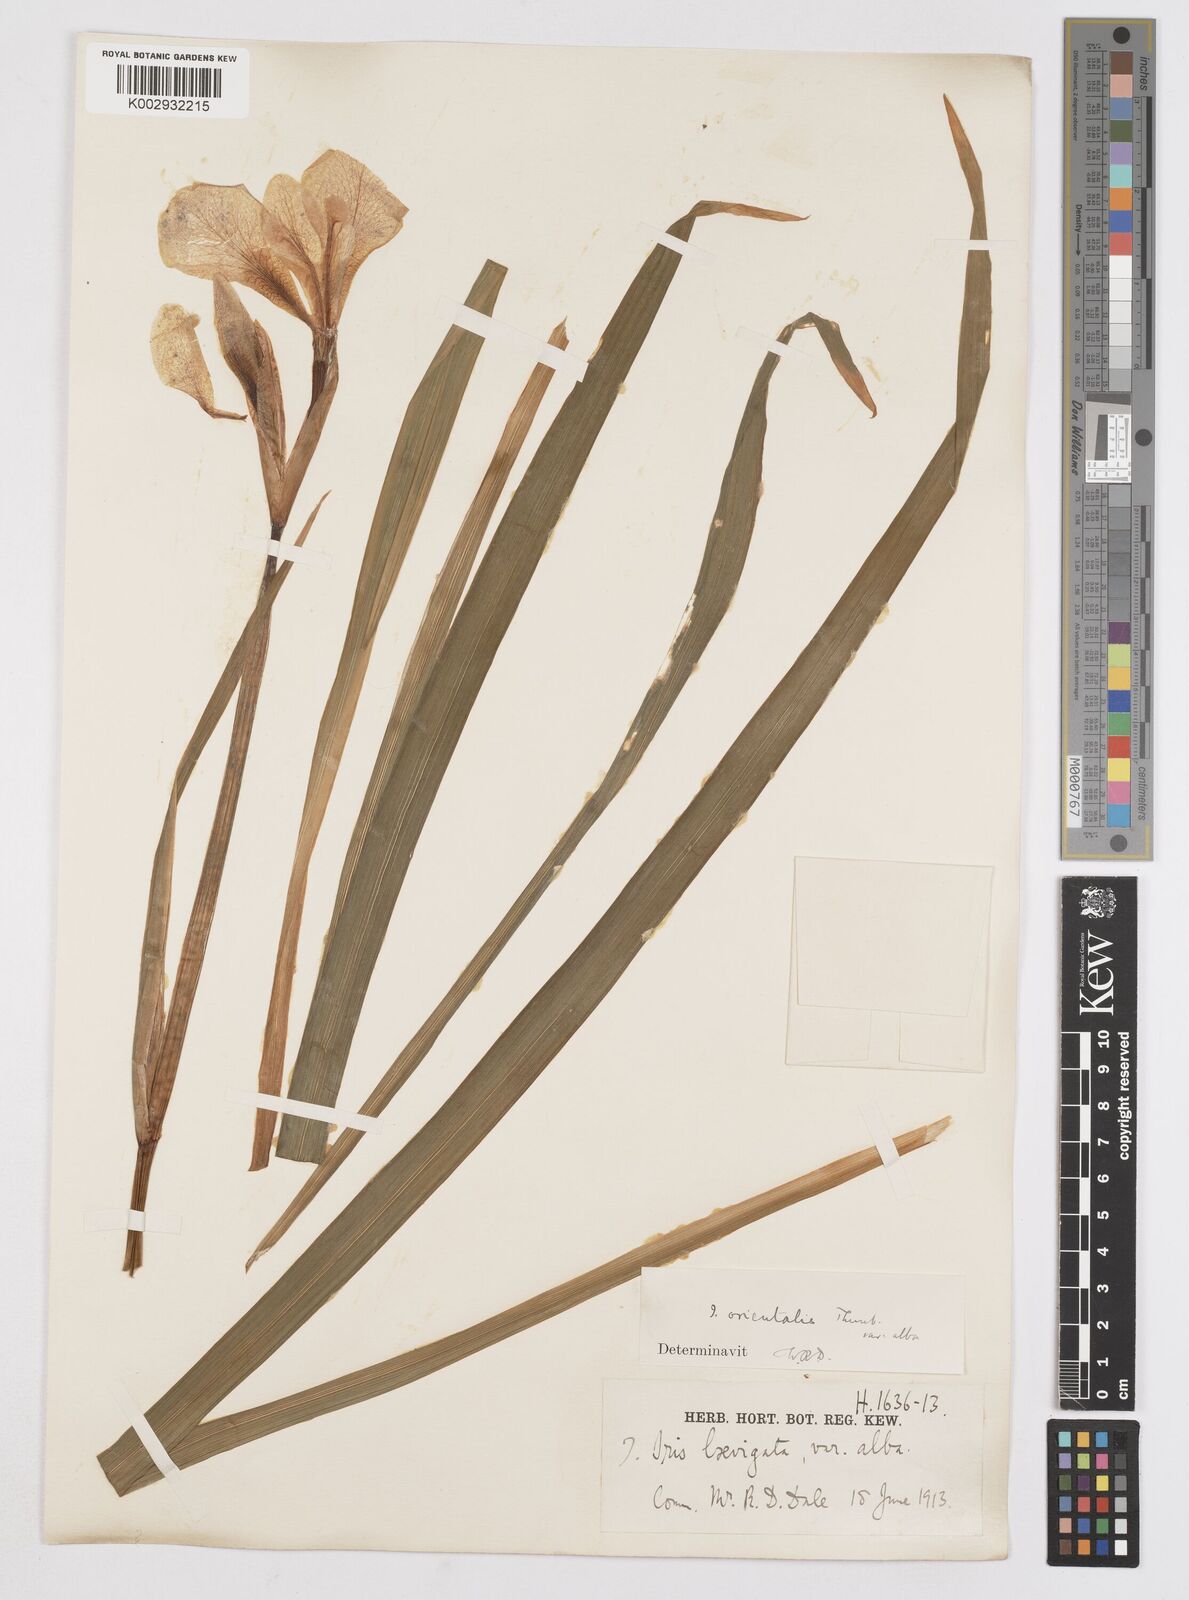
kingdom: Plantae
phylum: Tracheophyta
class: Liliopsida
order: Asparagales
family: Iridaceae
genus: Iris
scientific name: Iris sanguinea
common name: Blood iris
